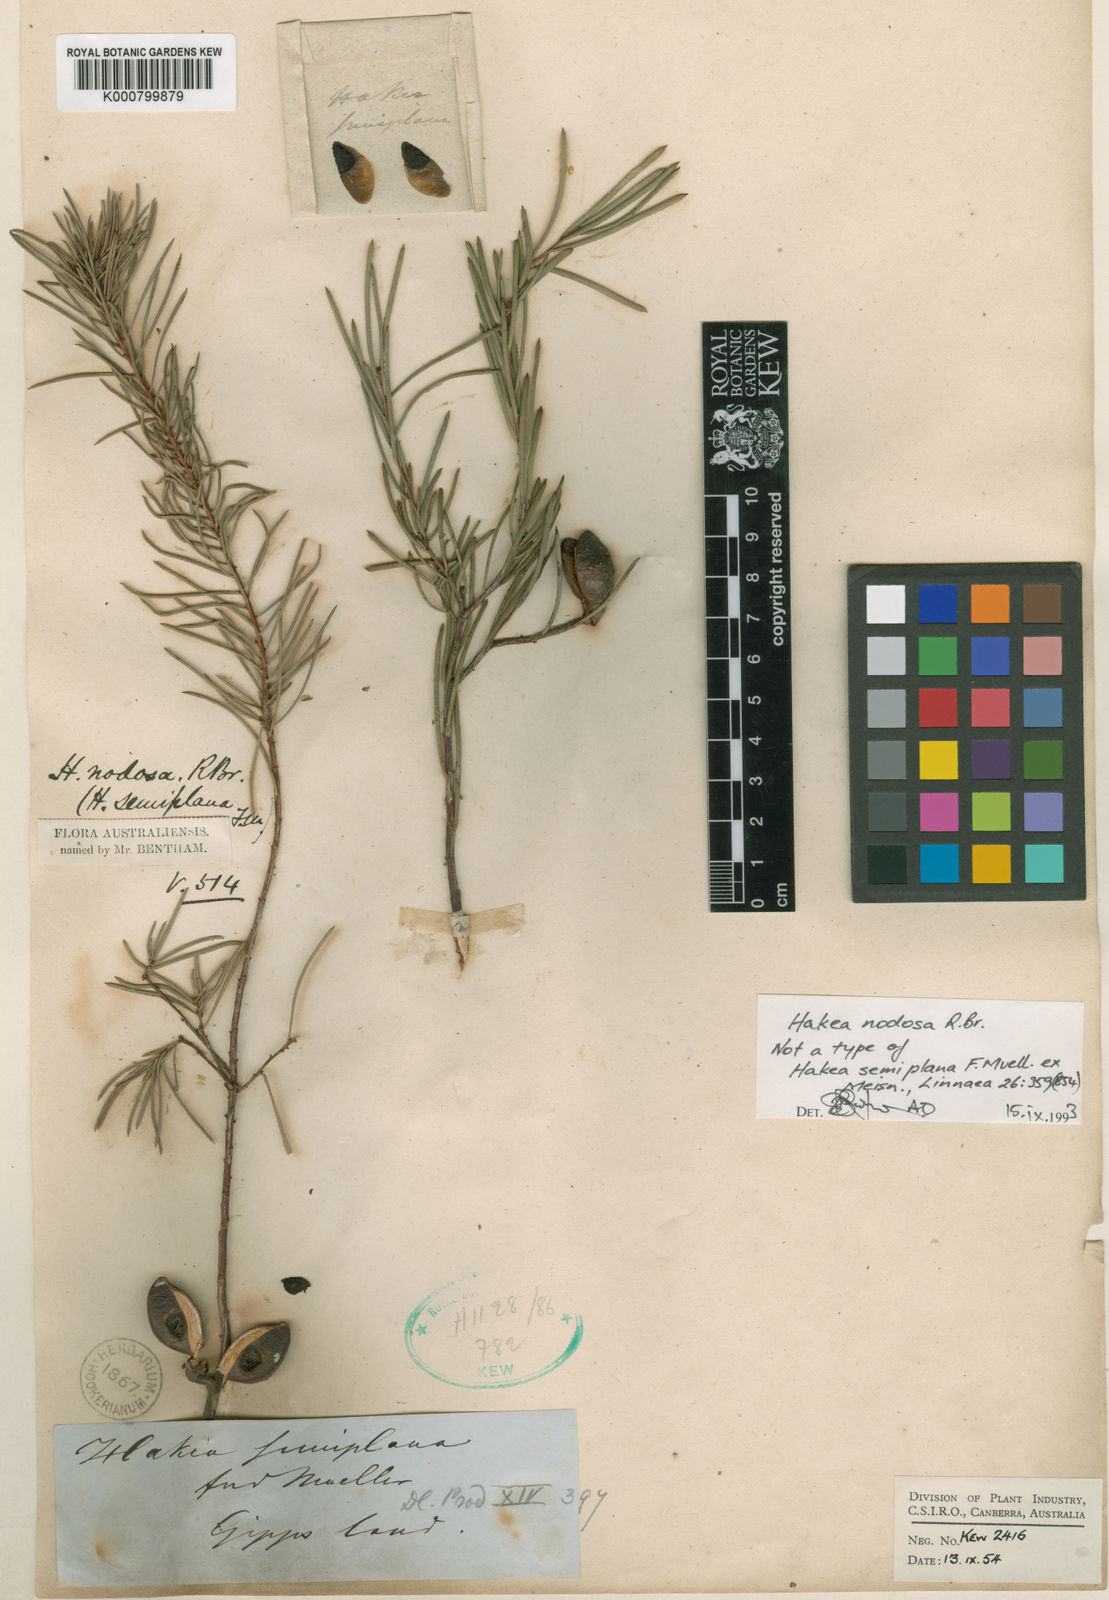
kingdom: Plantae
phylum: Tracheophyta
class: Magnoliopsida
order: Proteales
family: Proteaceae
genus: Hakea
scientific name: Hakea nodosa
